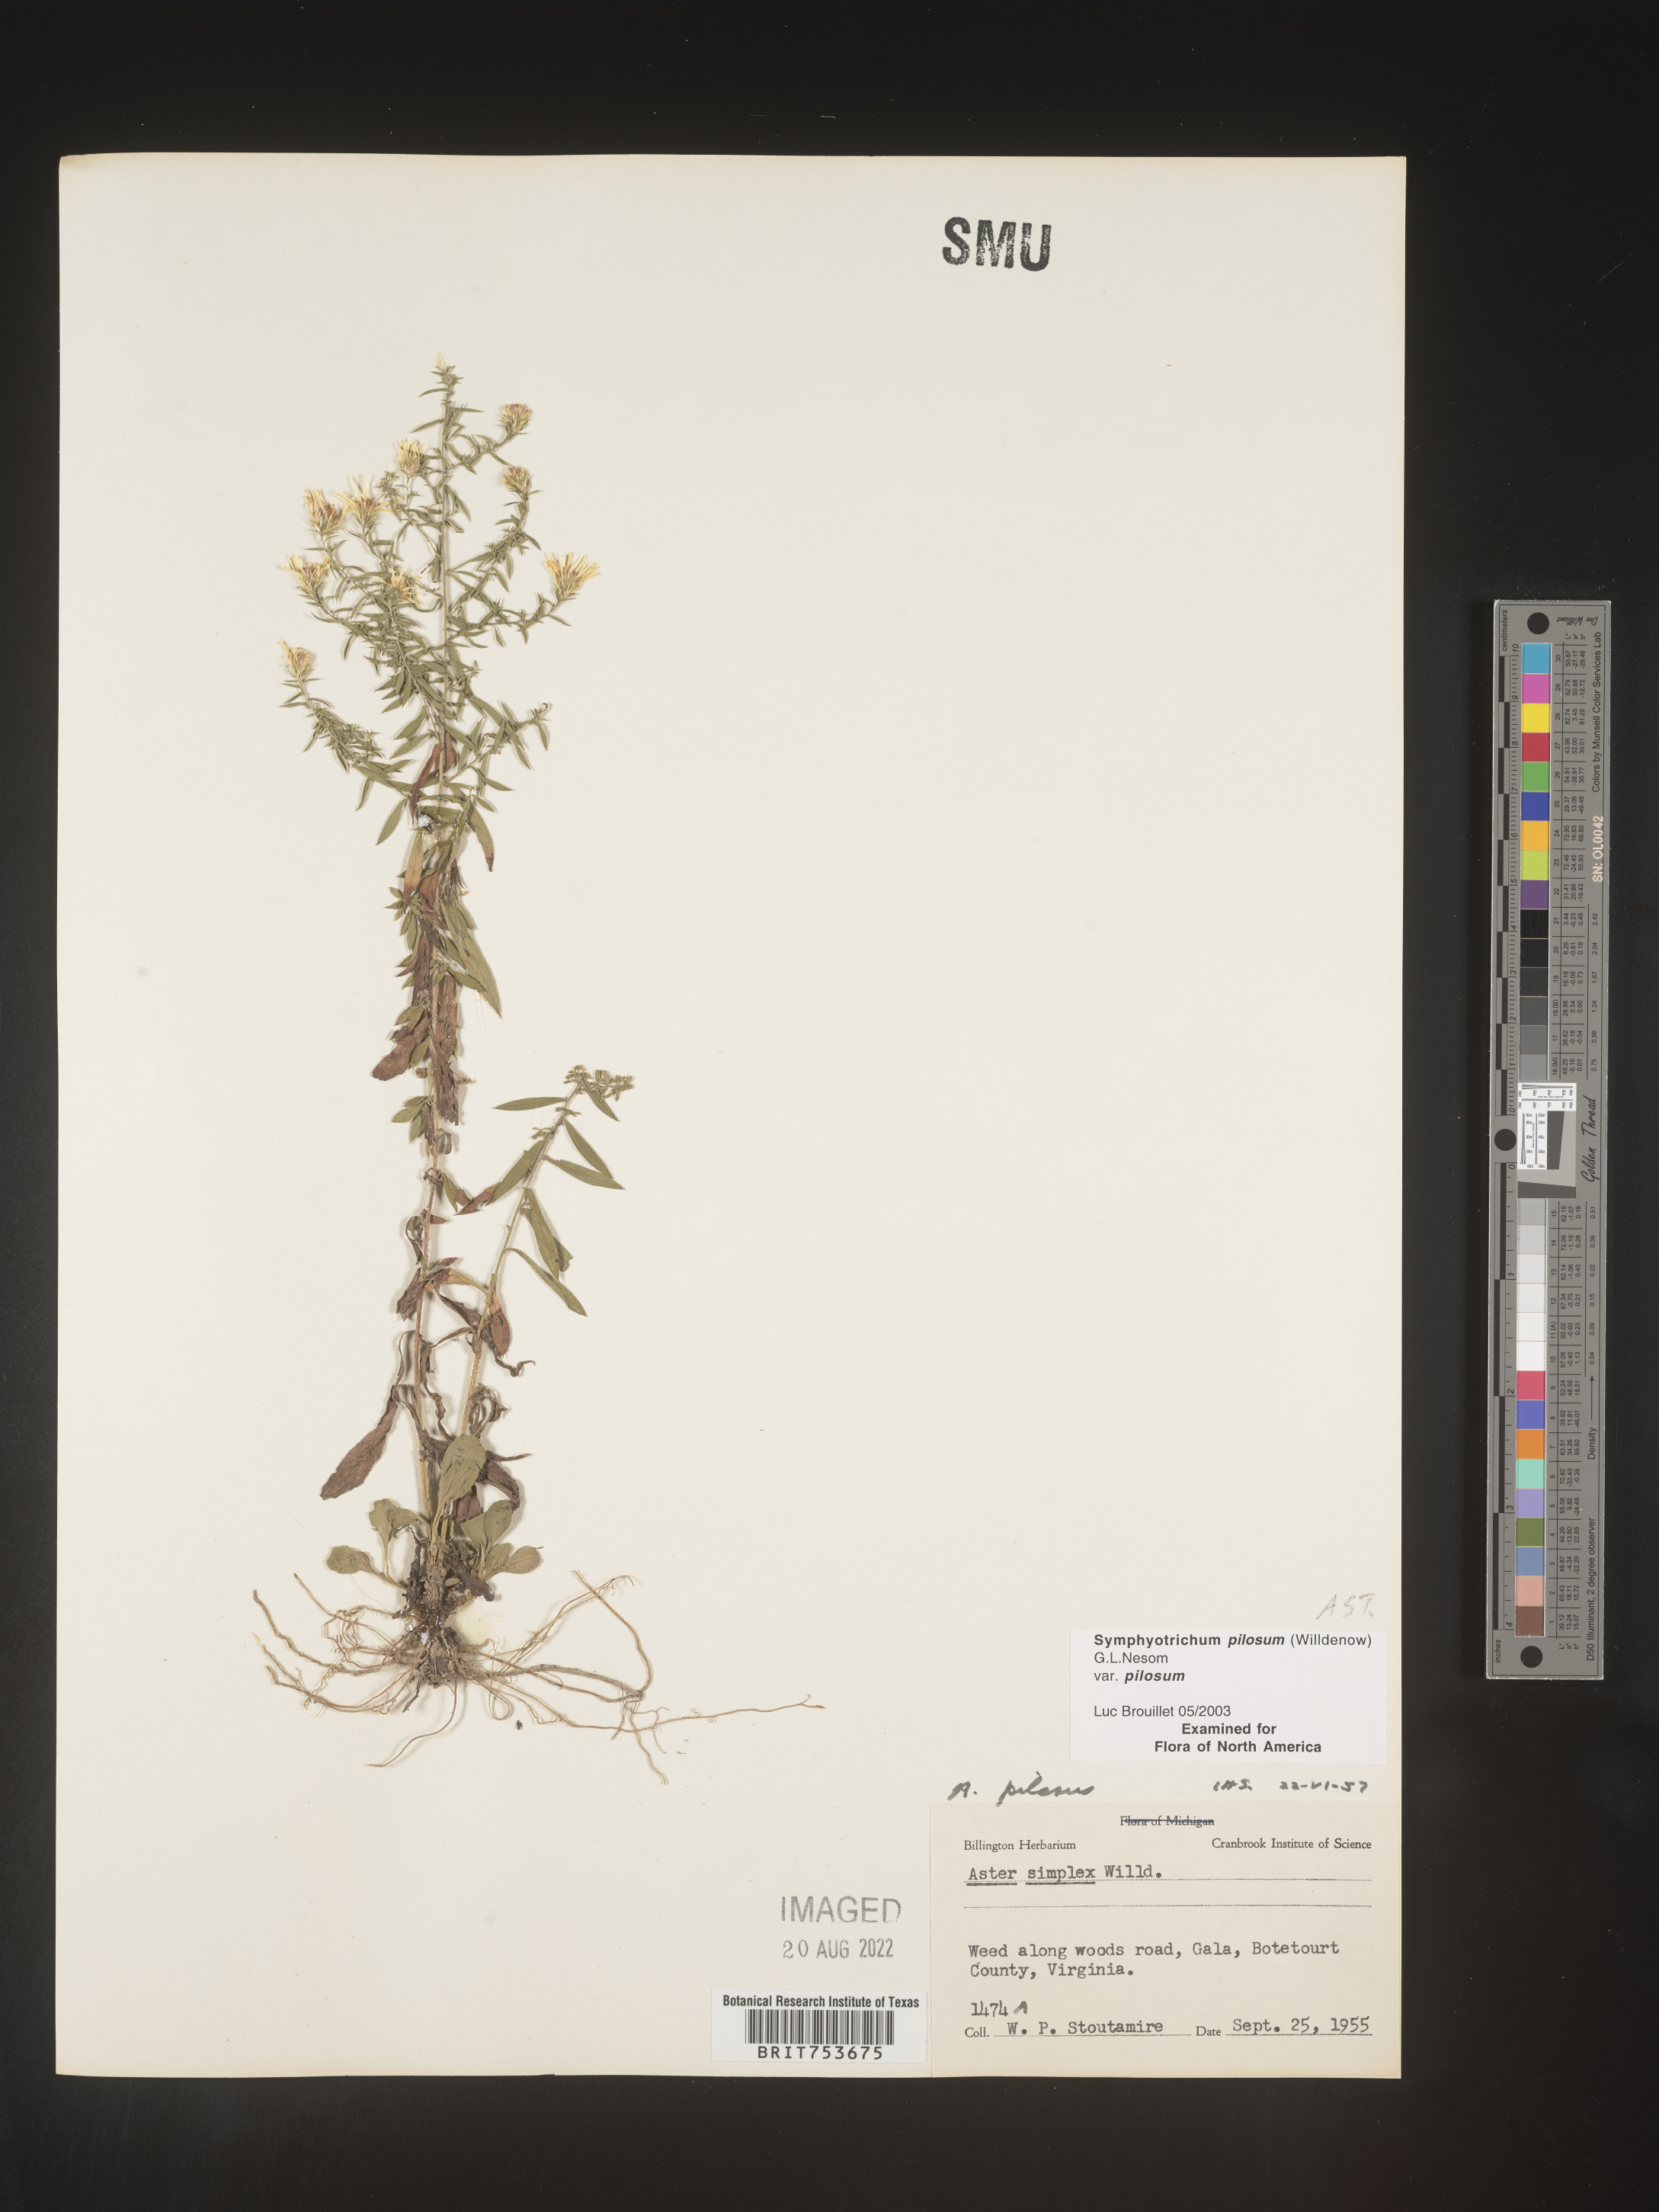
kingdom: Plantae
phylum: Tracheophyta
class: Magnoliopsida
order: Asterales
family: Asteraceae
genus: Symphyotrichum
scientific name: Symphyotrichum pilosum
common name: Awl aster
